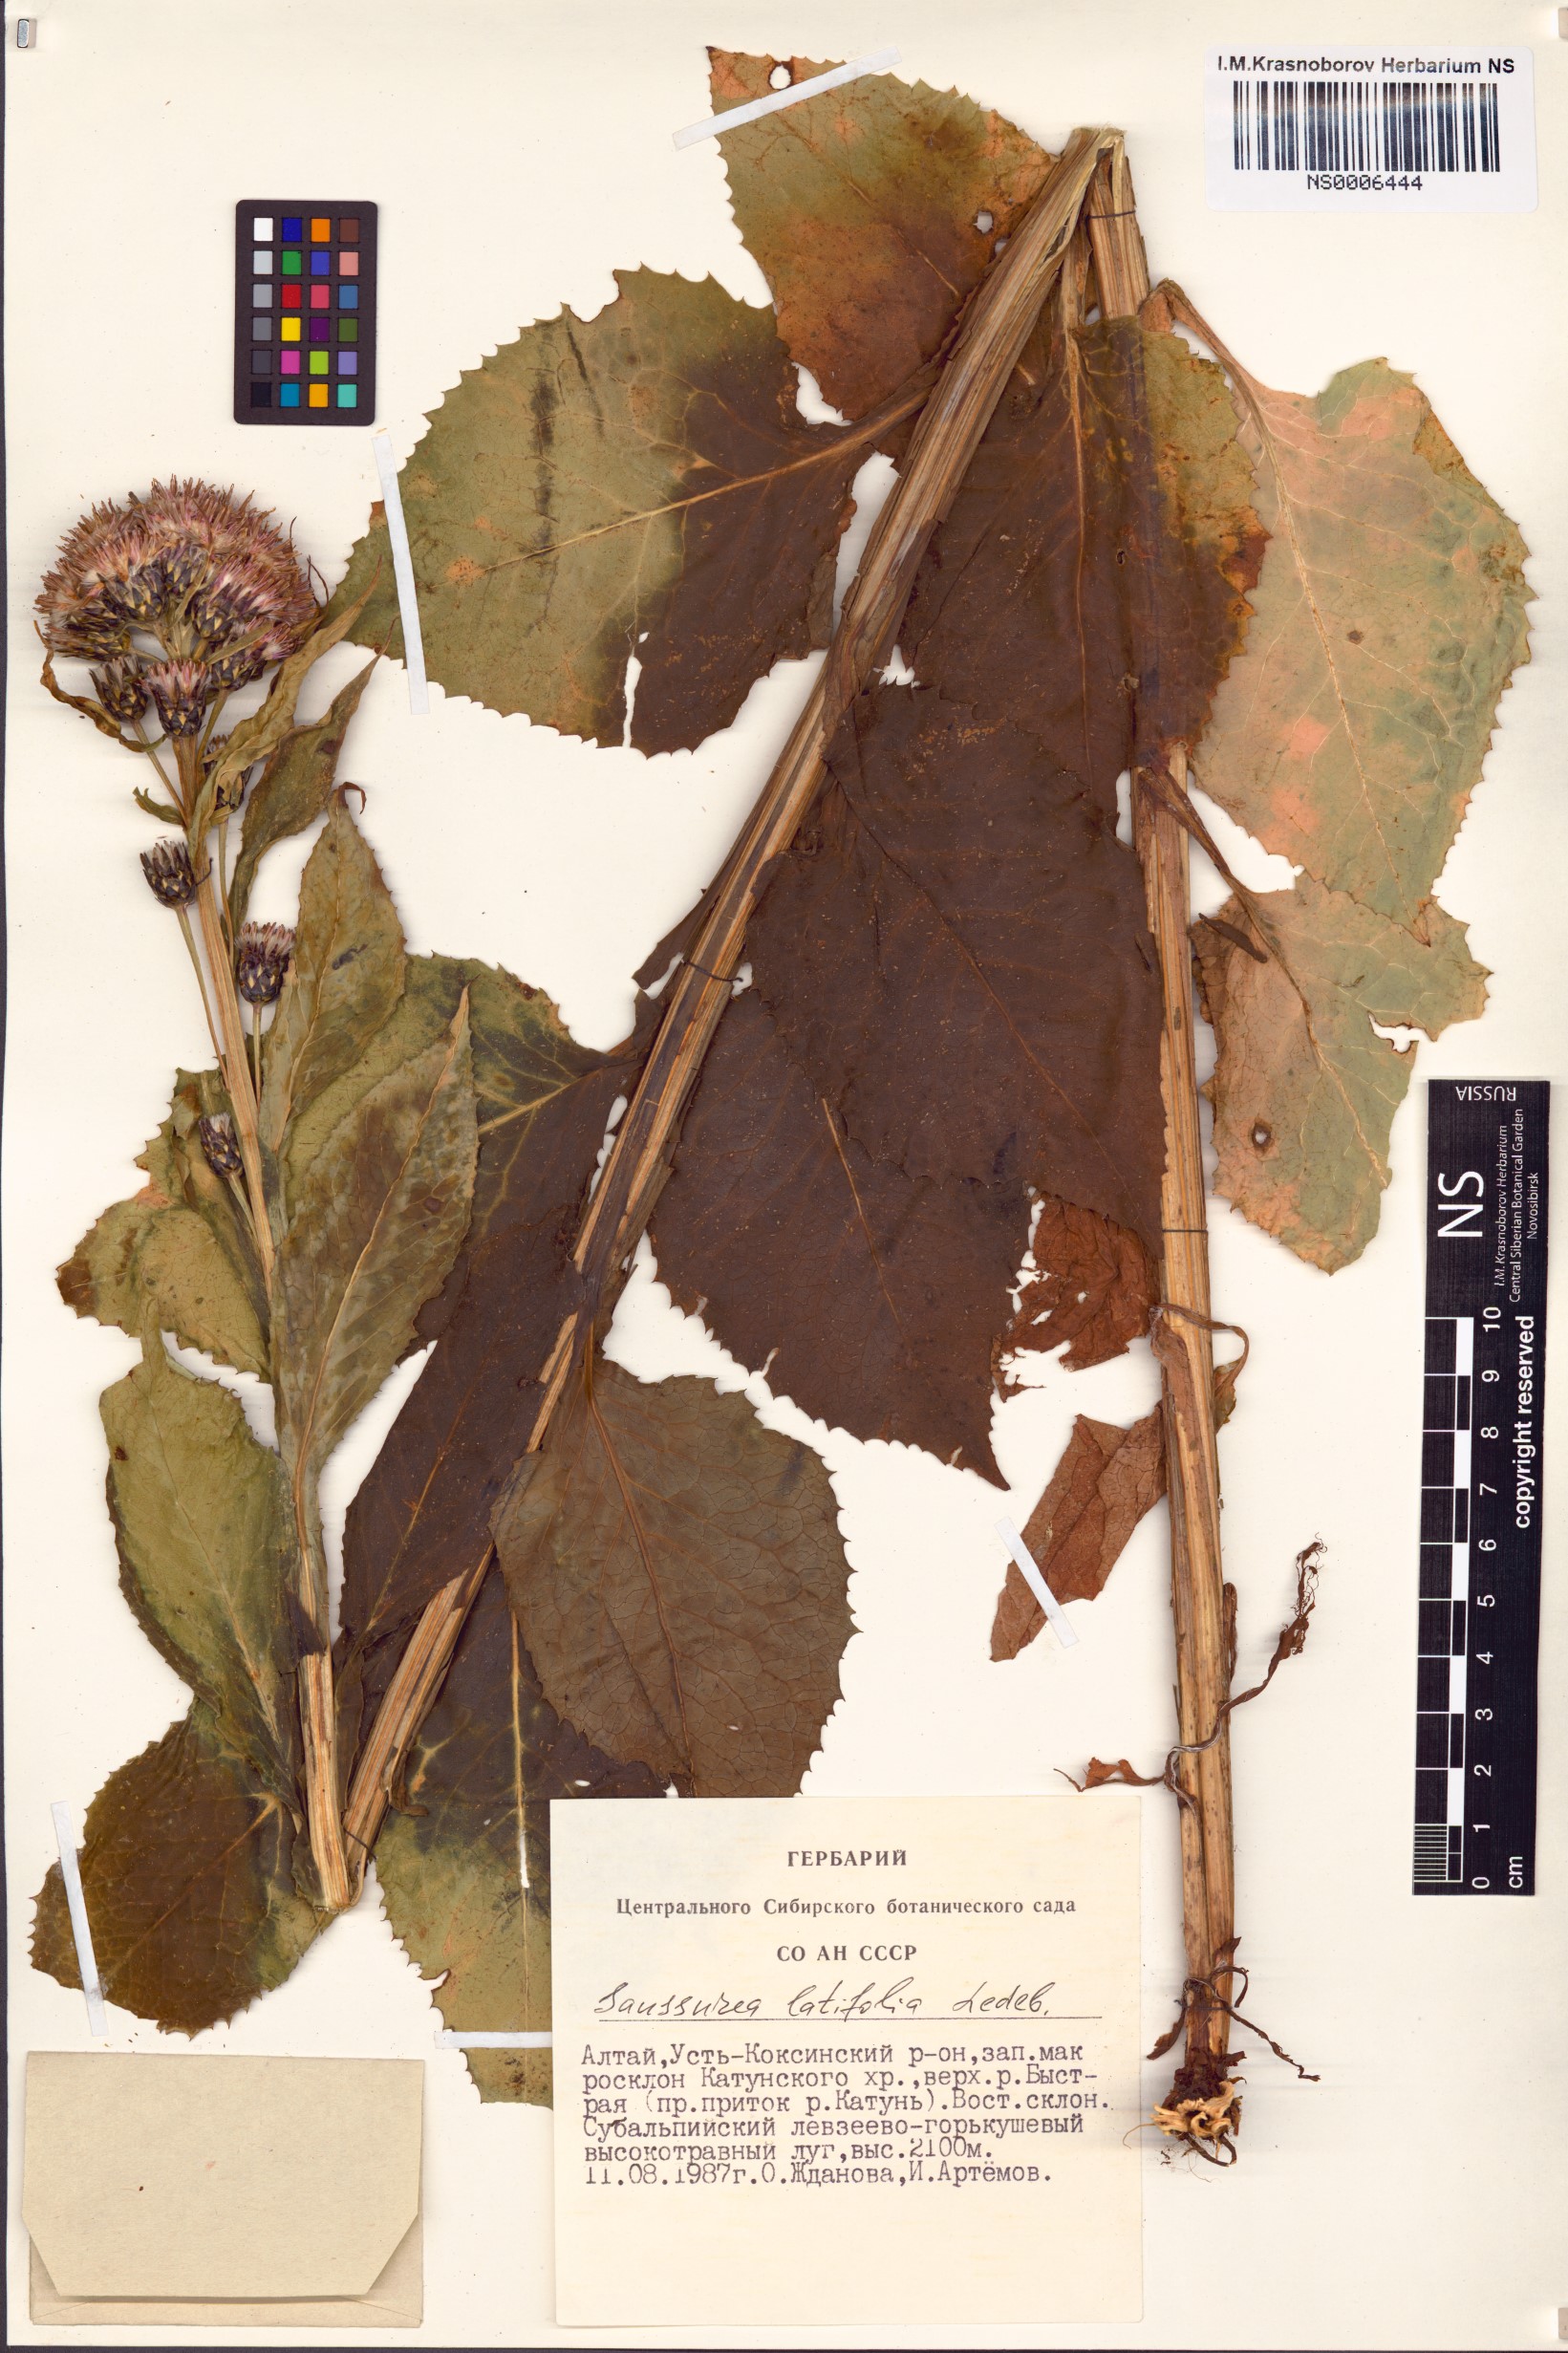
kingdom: Plantae
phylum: Tracheophyta
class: Magnoliopsida
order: Asterales
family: Asteraceae
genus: Saussurea
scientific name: Saussurea latifolia
